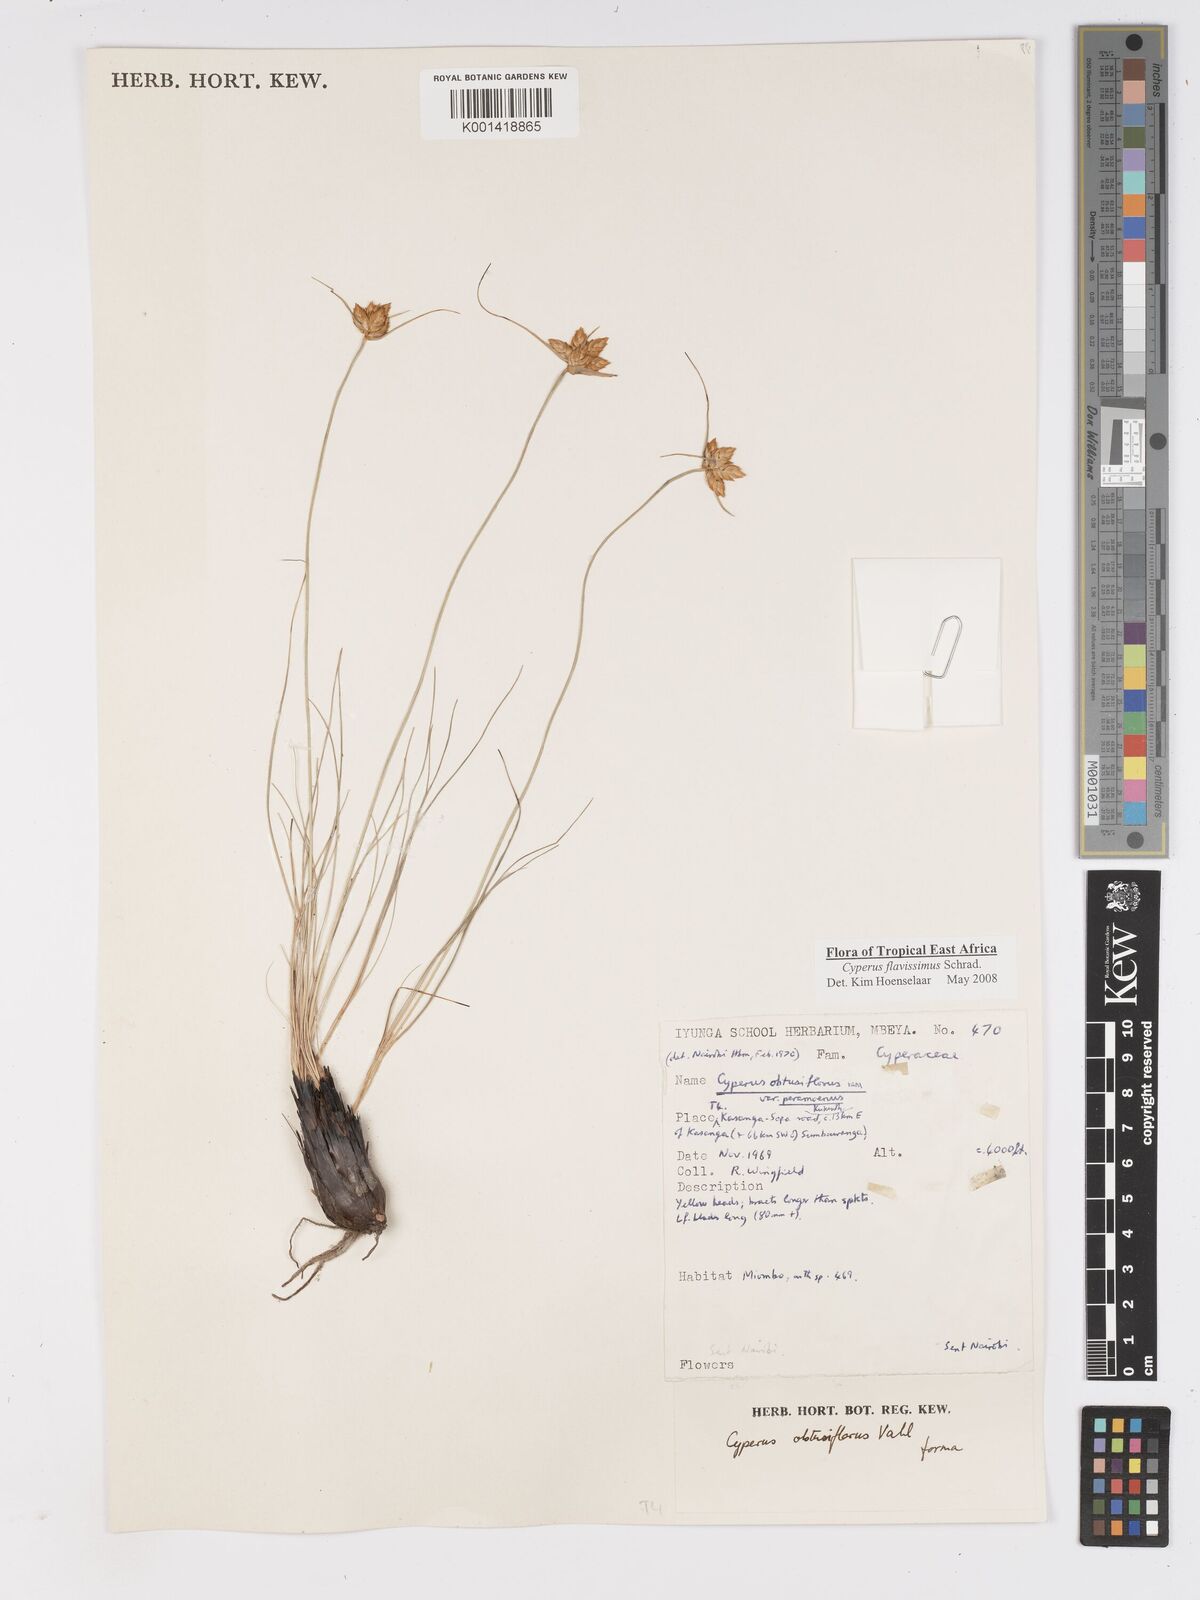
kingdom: Plantae
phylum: Tracheophyta
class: Liliopsida
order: Poales
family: Cyperaceae
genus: Cyperus
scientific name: Cyperus sphaerocephalus
